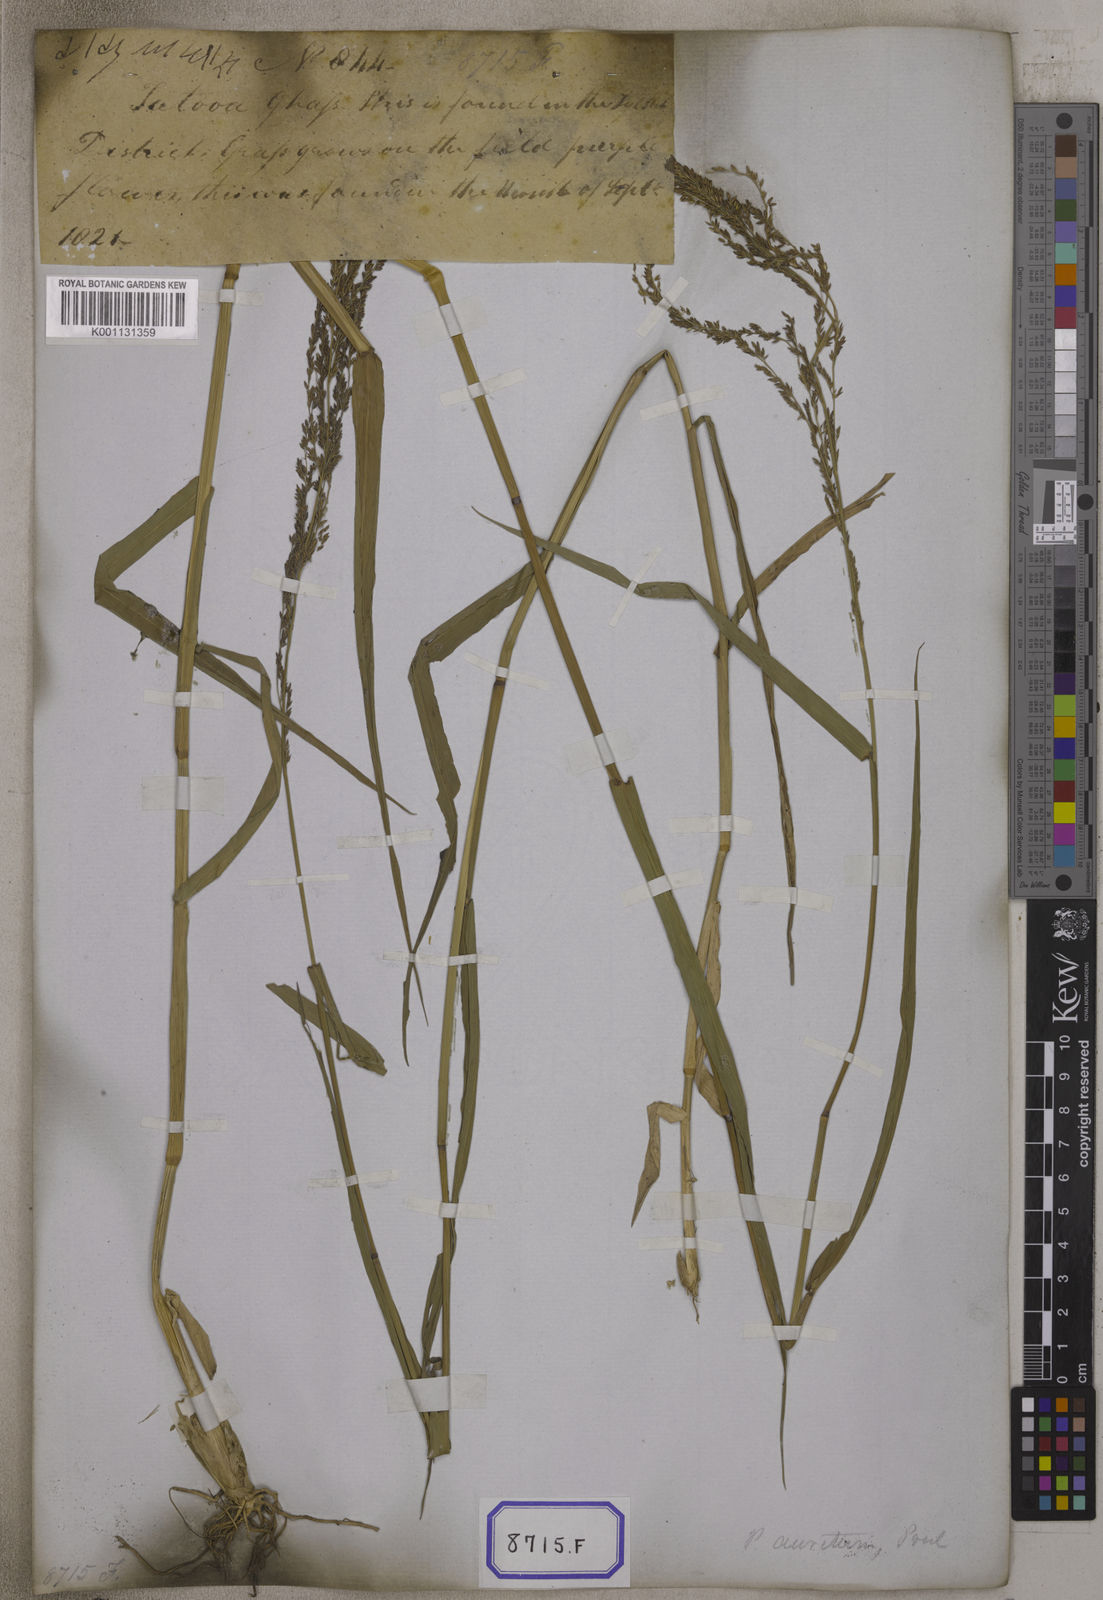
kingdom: Plantae
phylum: Tracheophyta
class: Liliopsida
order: Poales
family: Poaceae
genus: Megathyrsus
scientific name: Megathyrsus maximus
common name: Guineagrass
